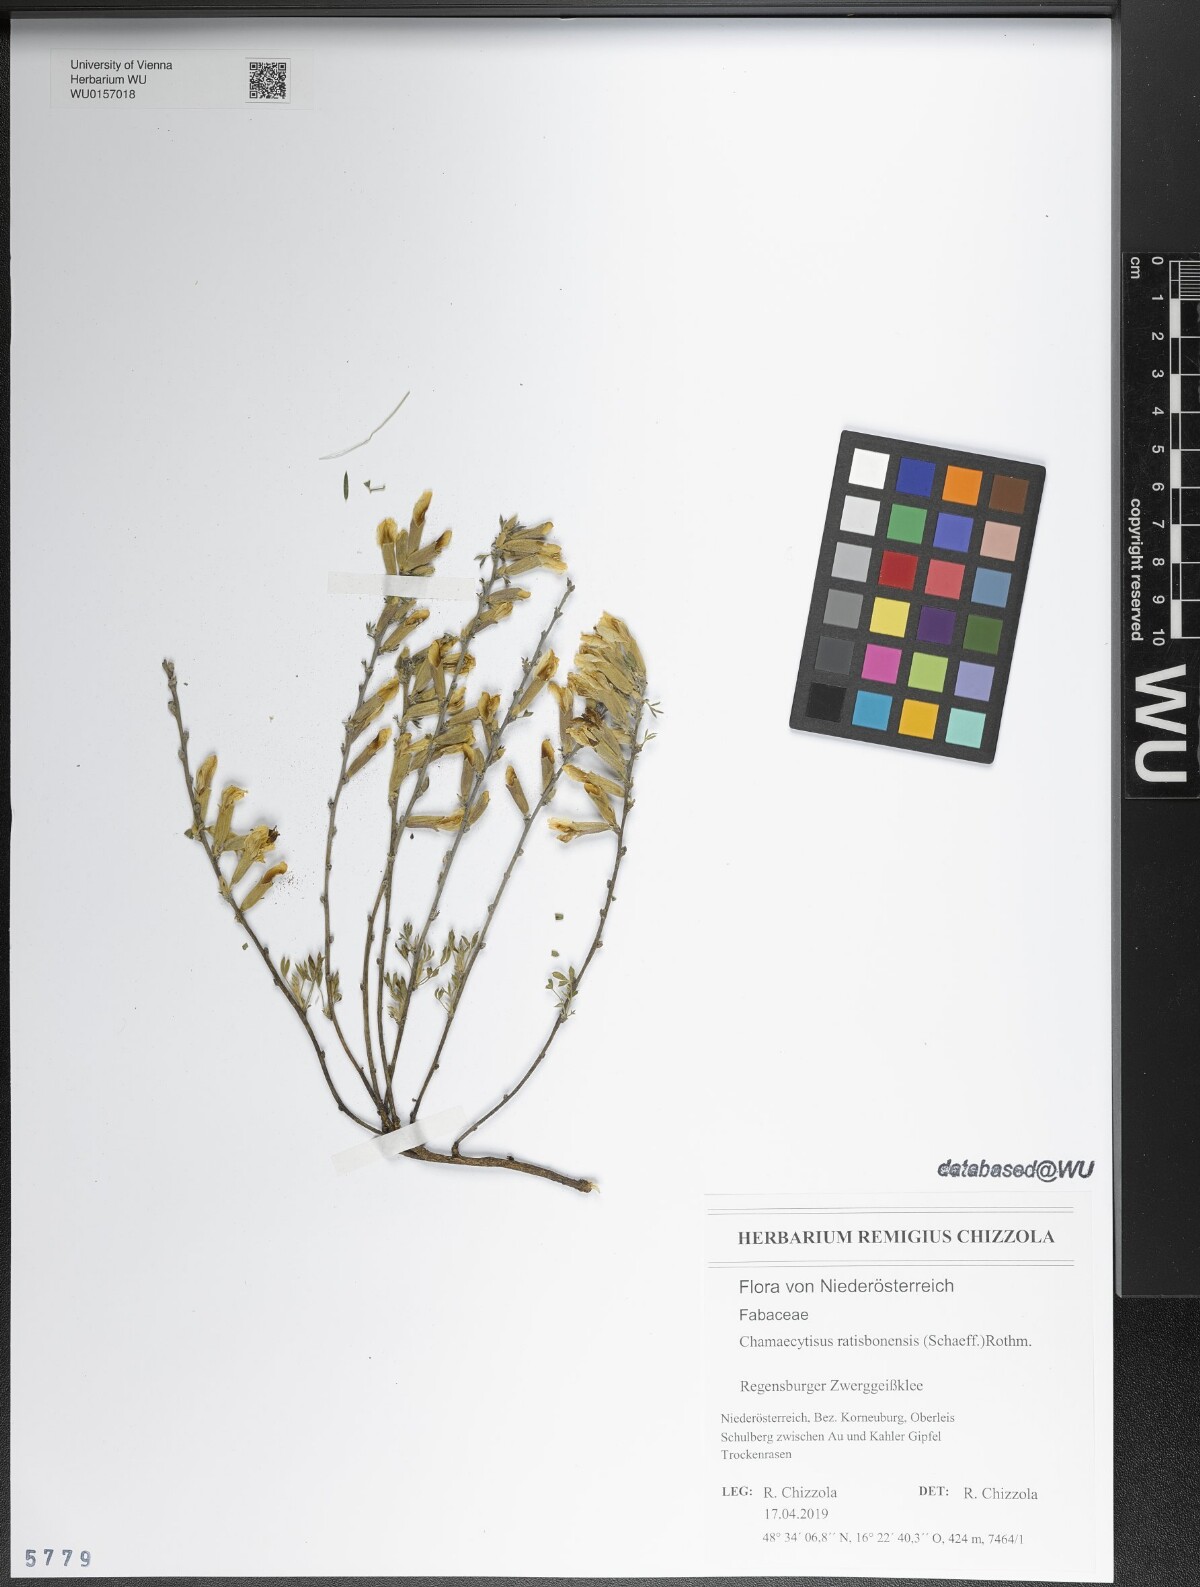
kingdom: Plantae
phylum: Tracheophyta
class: Magnoliopsida
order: Fabales
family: Fabaceae
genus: Chamaecytisus
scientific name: Chamaecytisus ratisbonensis
